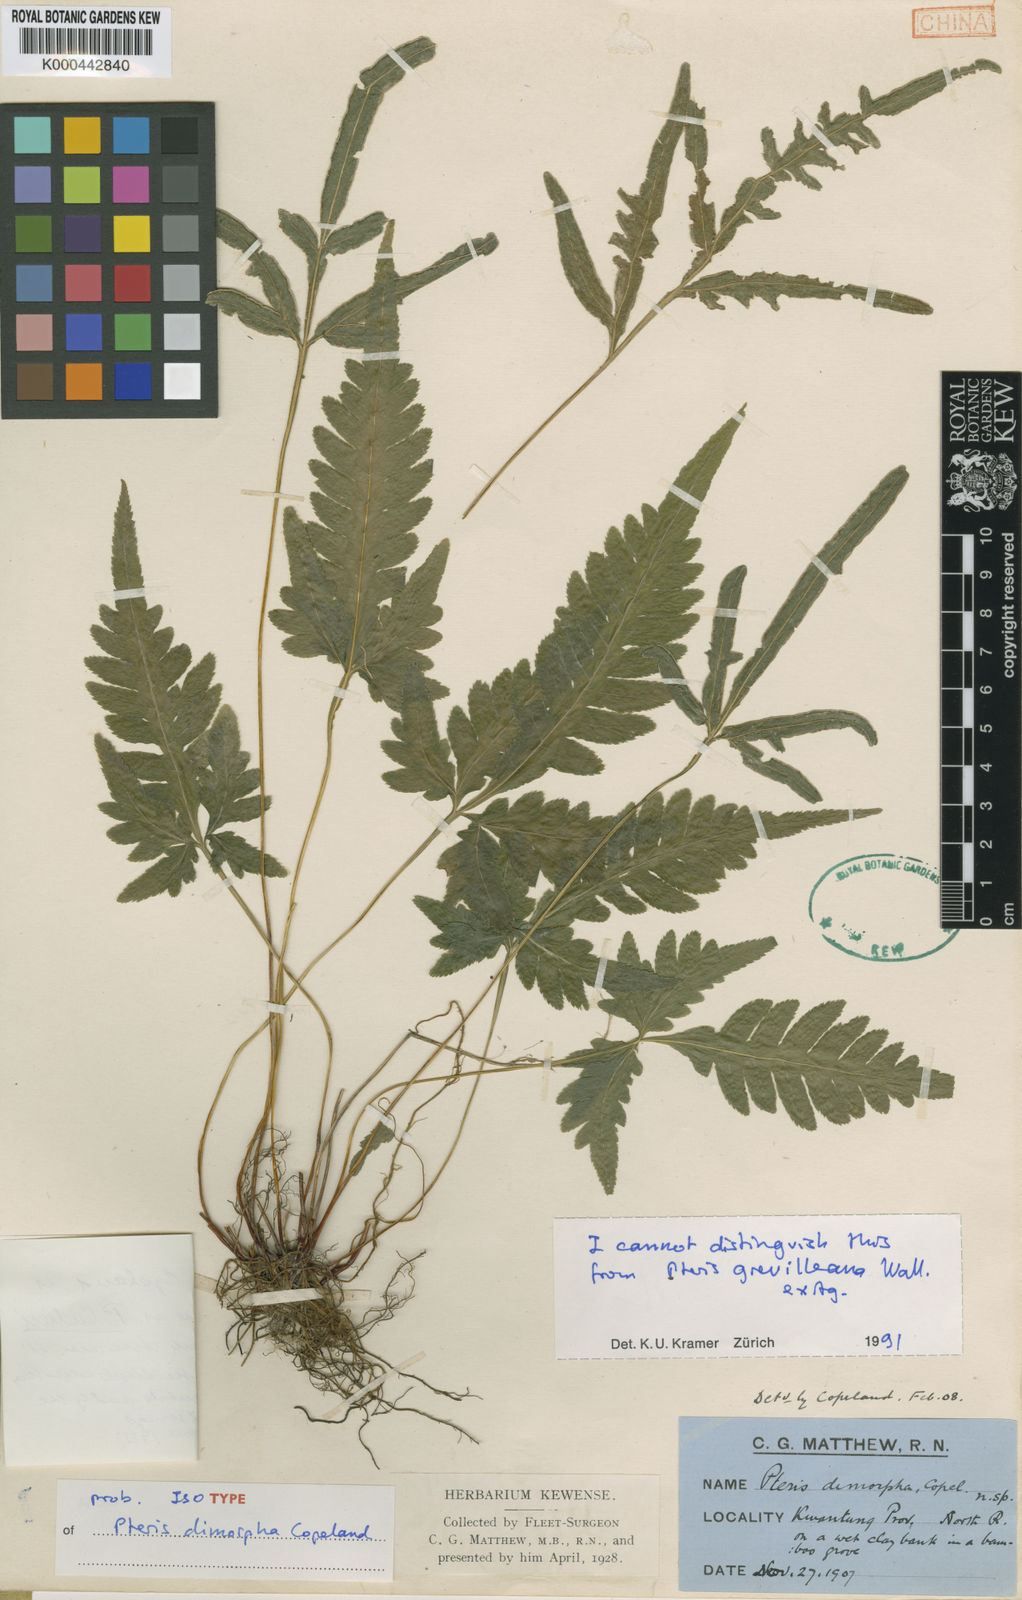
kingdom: Plantae
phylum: Tracheophyta
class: Polypodiopsida
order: Polypodiales
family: Pteridaceae
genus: Pteris
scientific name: Pteris dimorpha
